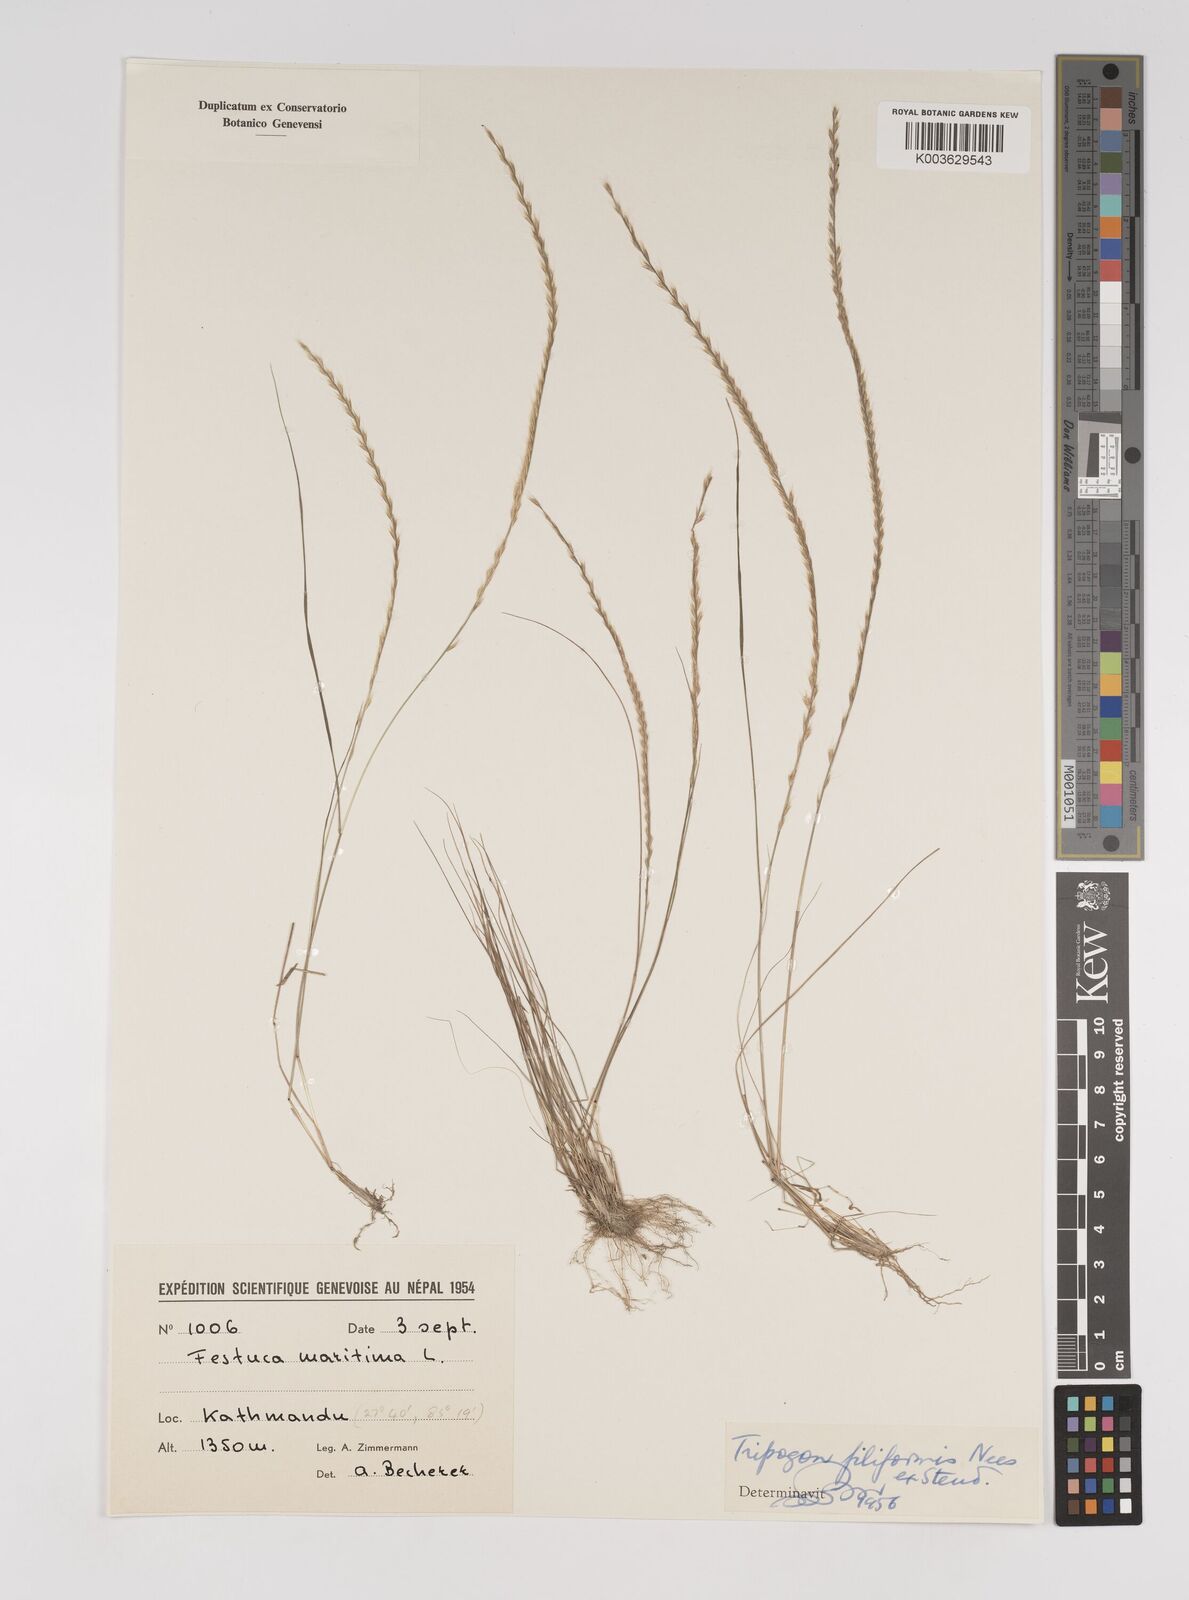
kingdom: Plantae
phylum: Tracheophyta
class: Liliopsida
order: Poales
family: Poaceae
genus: Tripogon
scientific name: Tripogon filiformis
